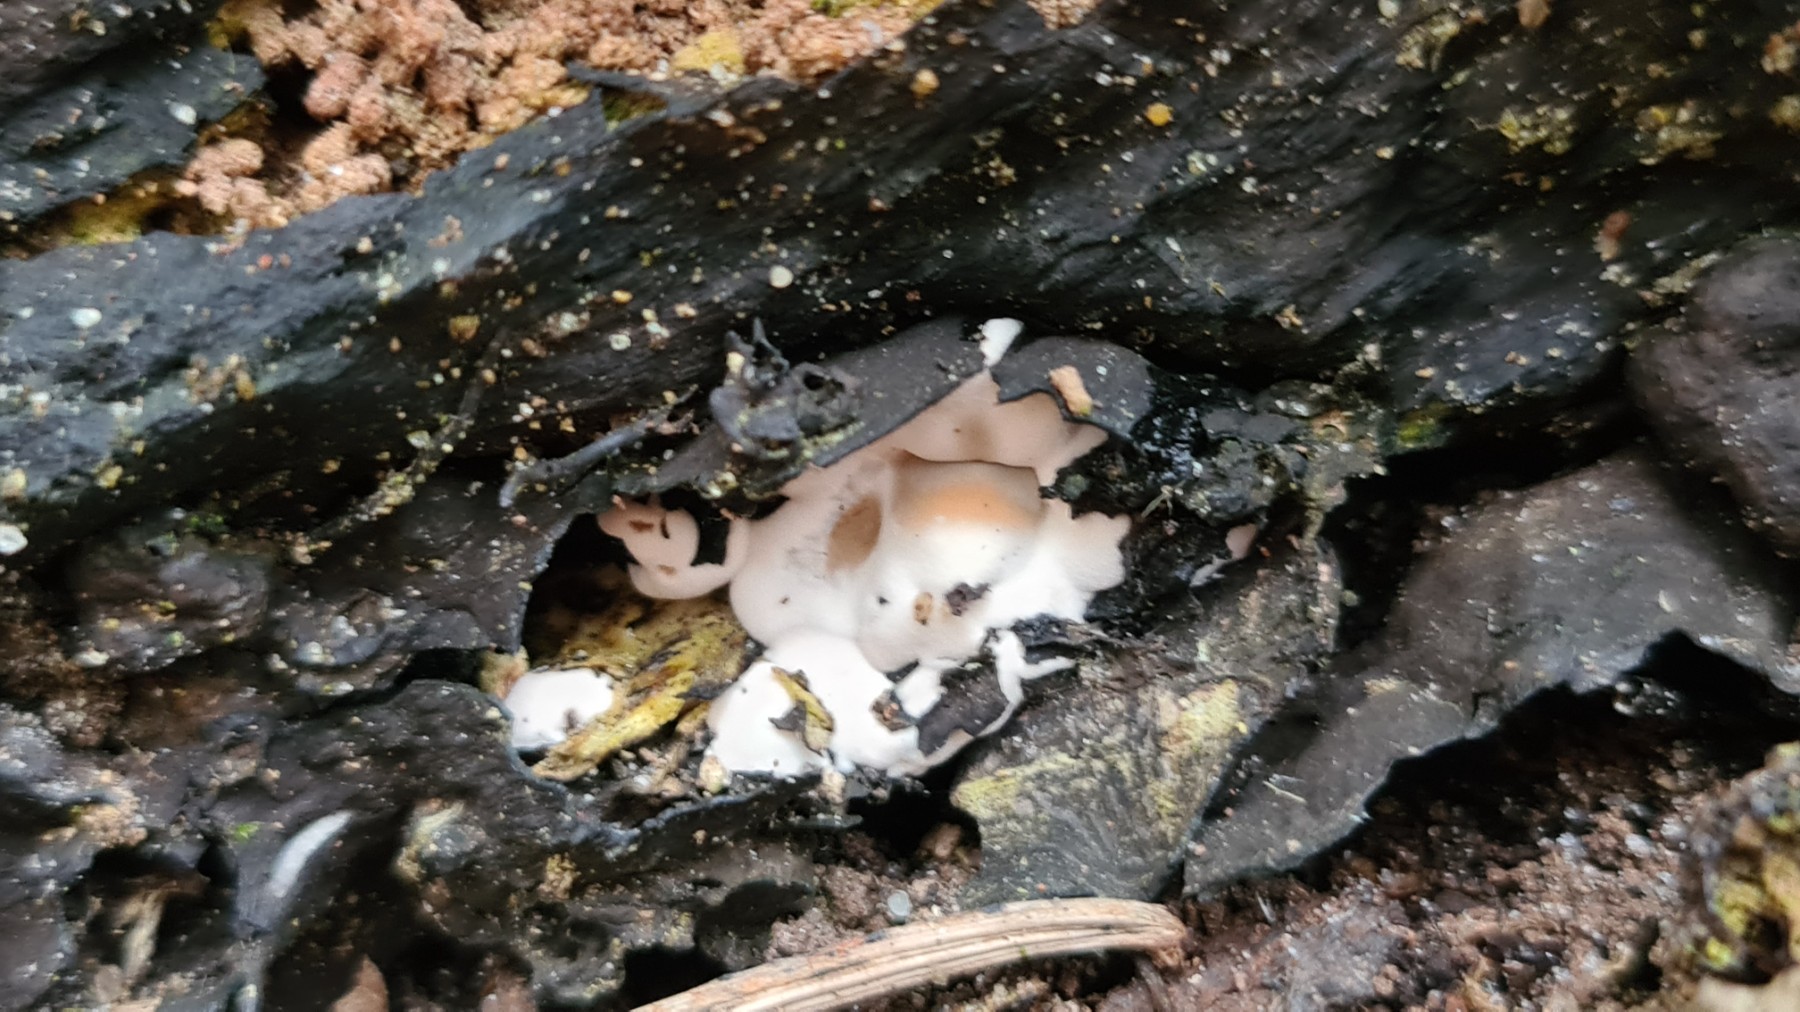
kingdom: Fungi
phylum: Ascomycota
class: Sordariomycetes
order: Xylariales
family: Xylariaceae
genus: Kretzschmaria
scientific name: Kretzschmaria deusta
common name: stor kulsvamp
